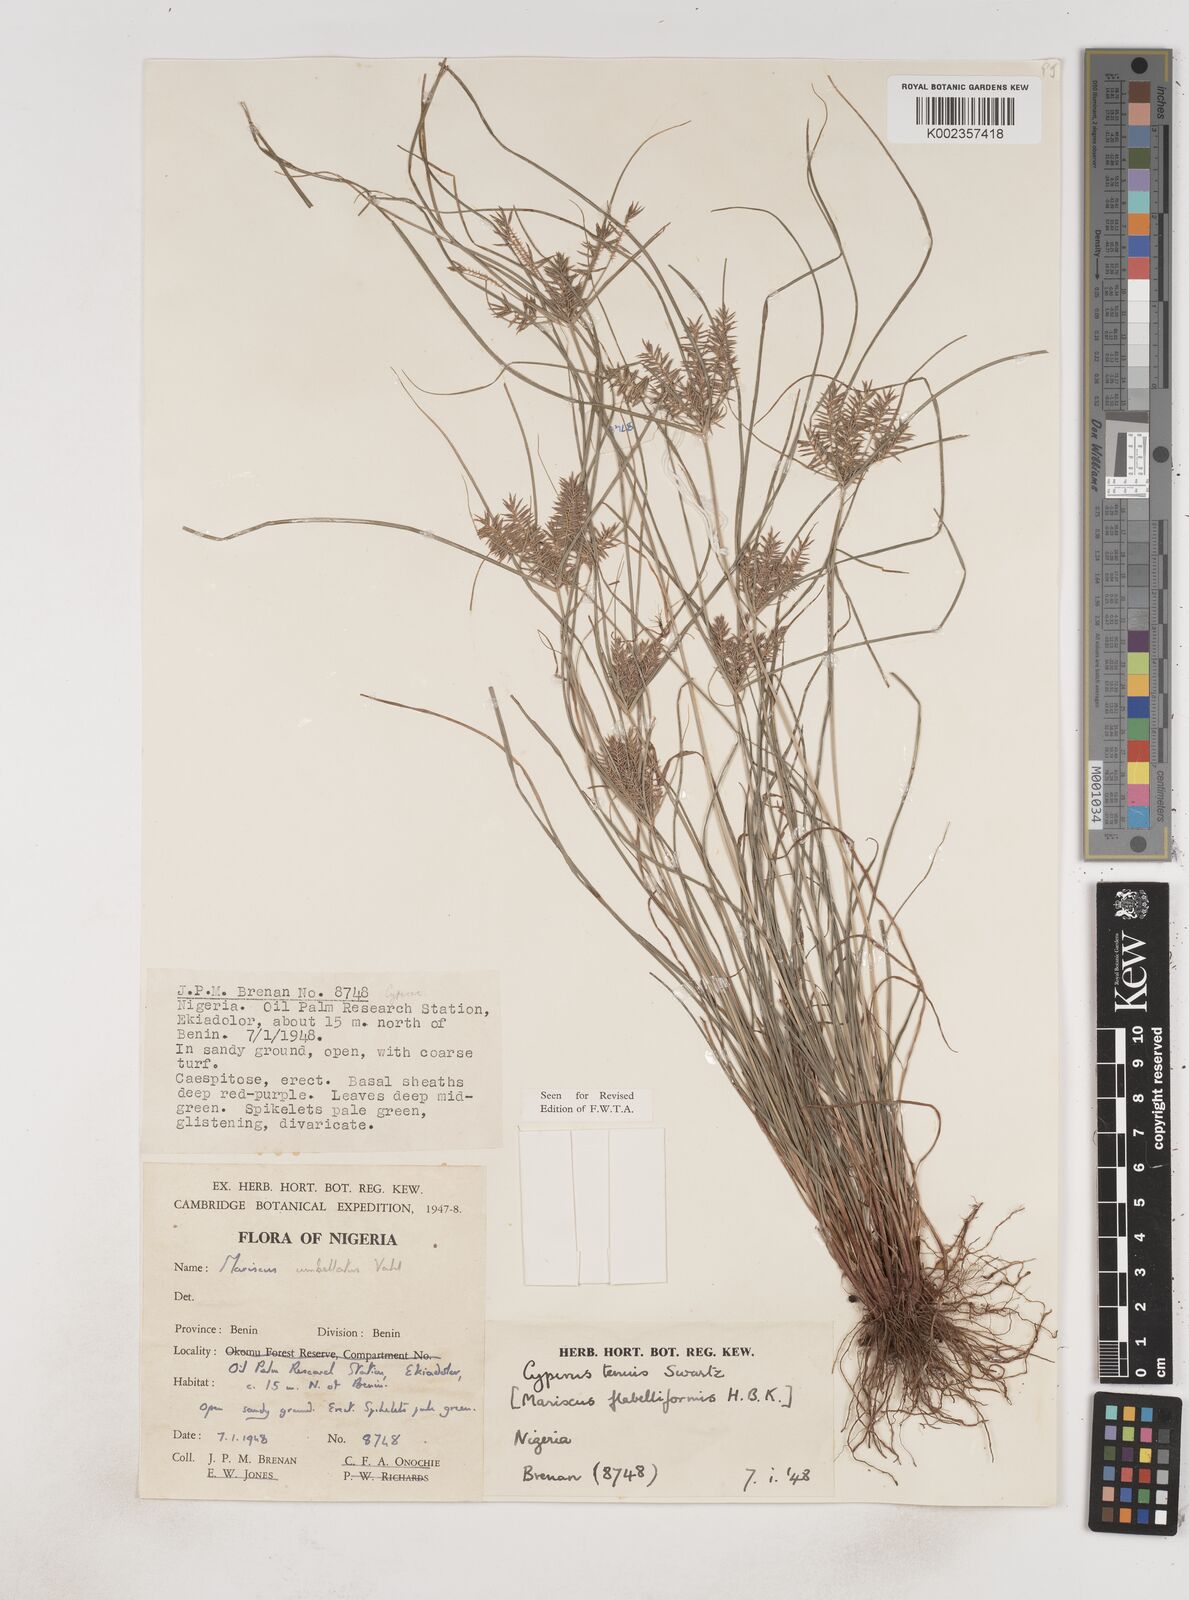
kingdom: Plantae
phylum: Tracheophyta
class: Liliopsida
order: Poales
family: Cyperaceae
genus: Cyperus
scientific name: Cyperus tenuis
